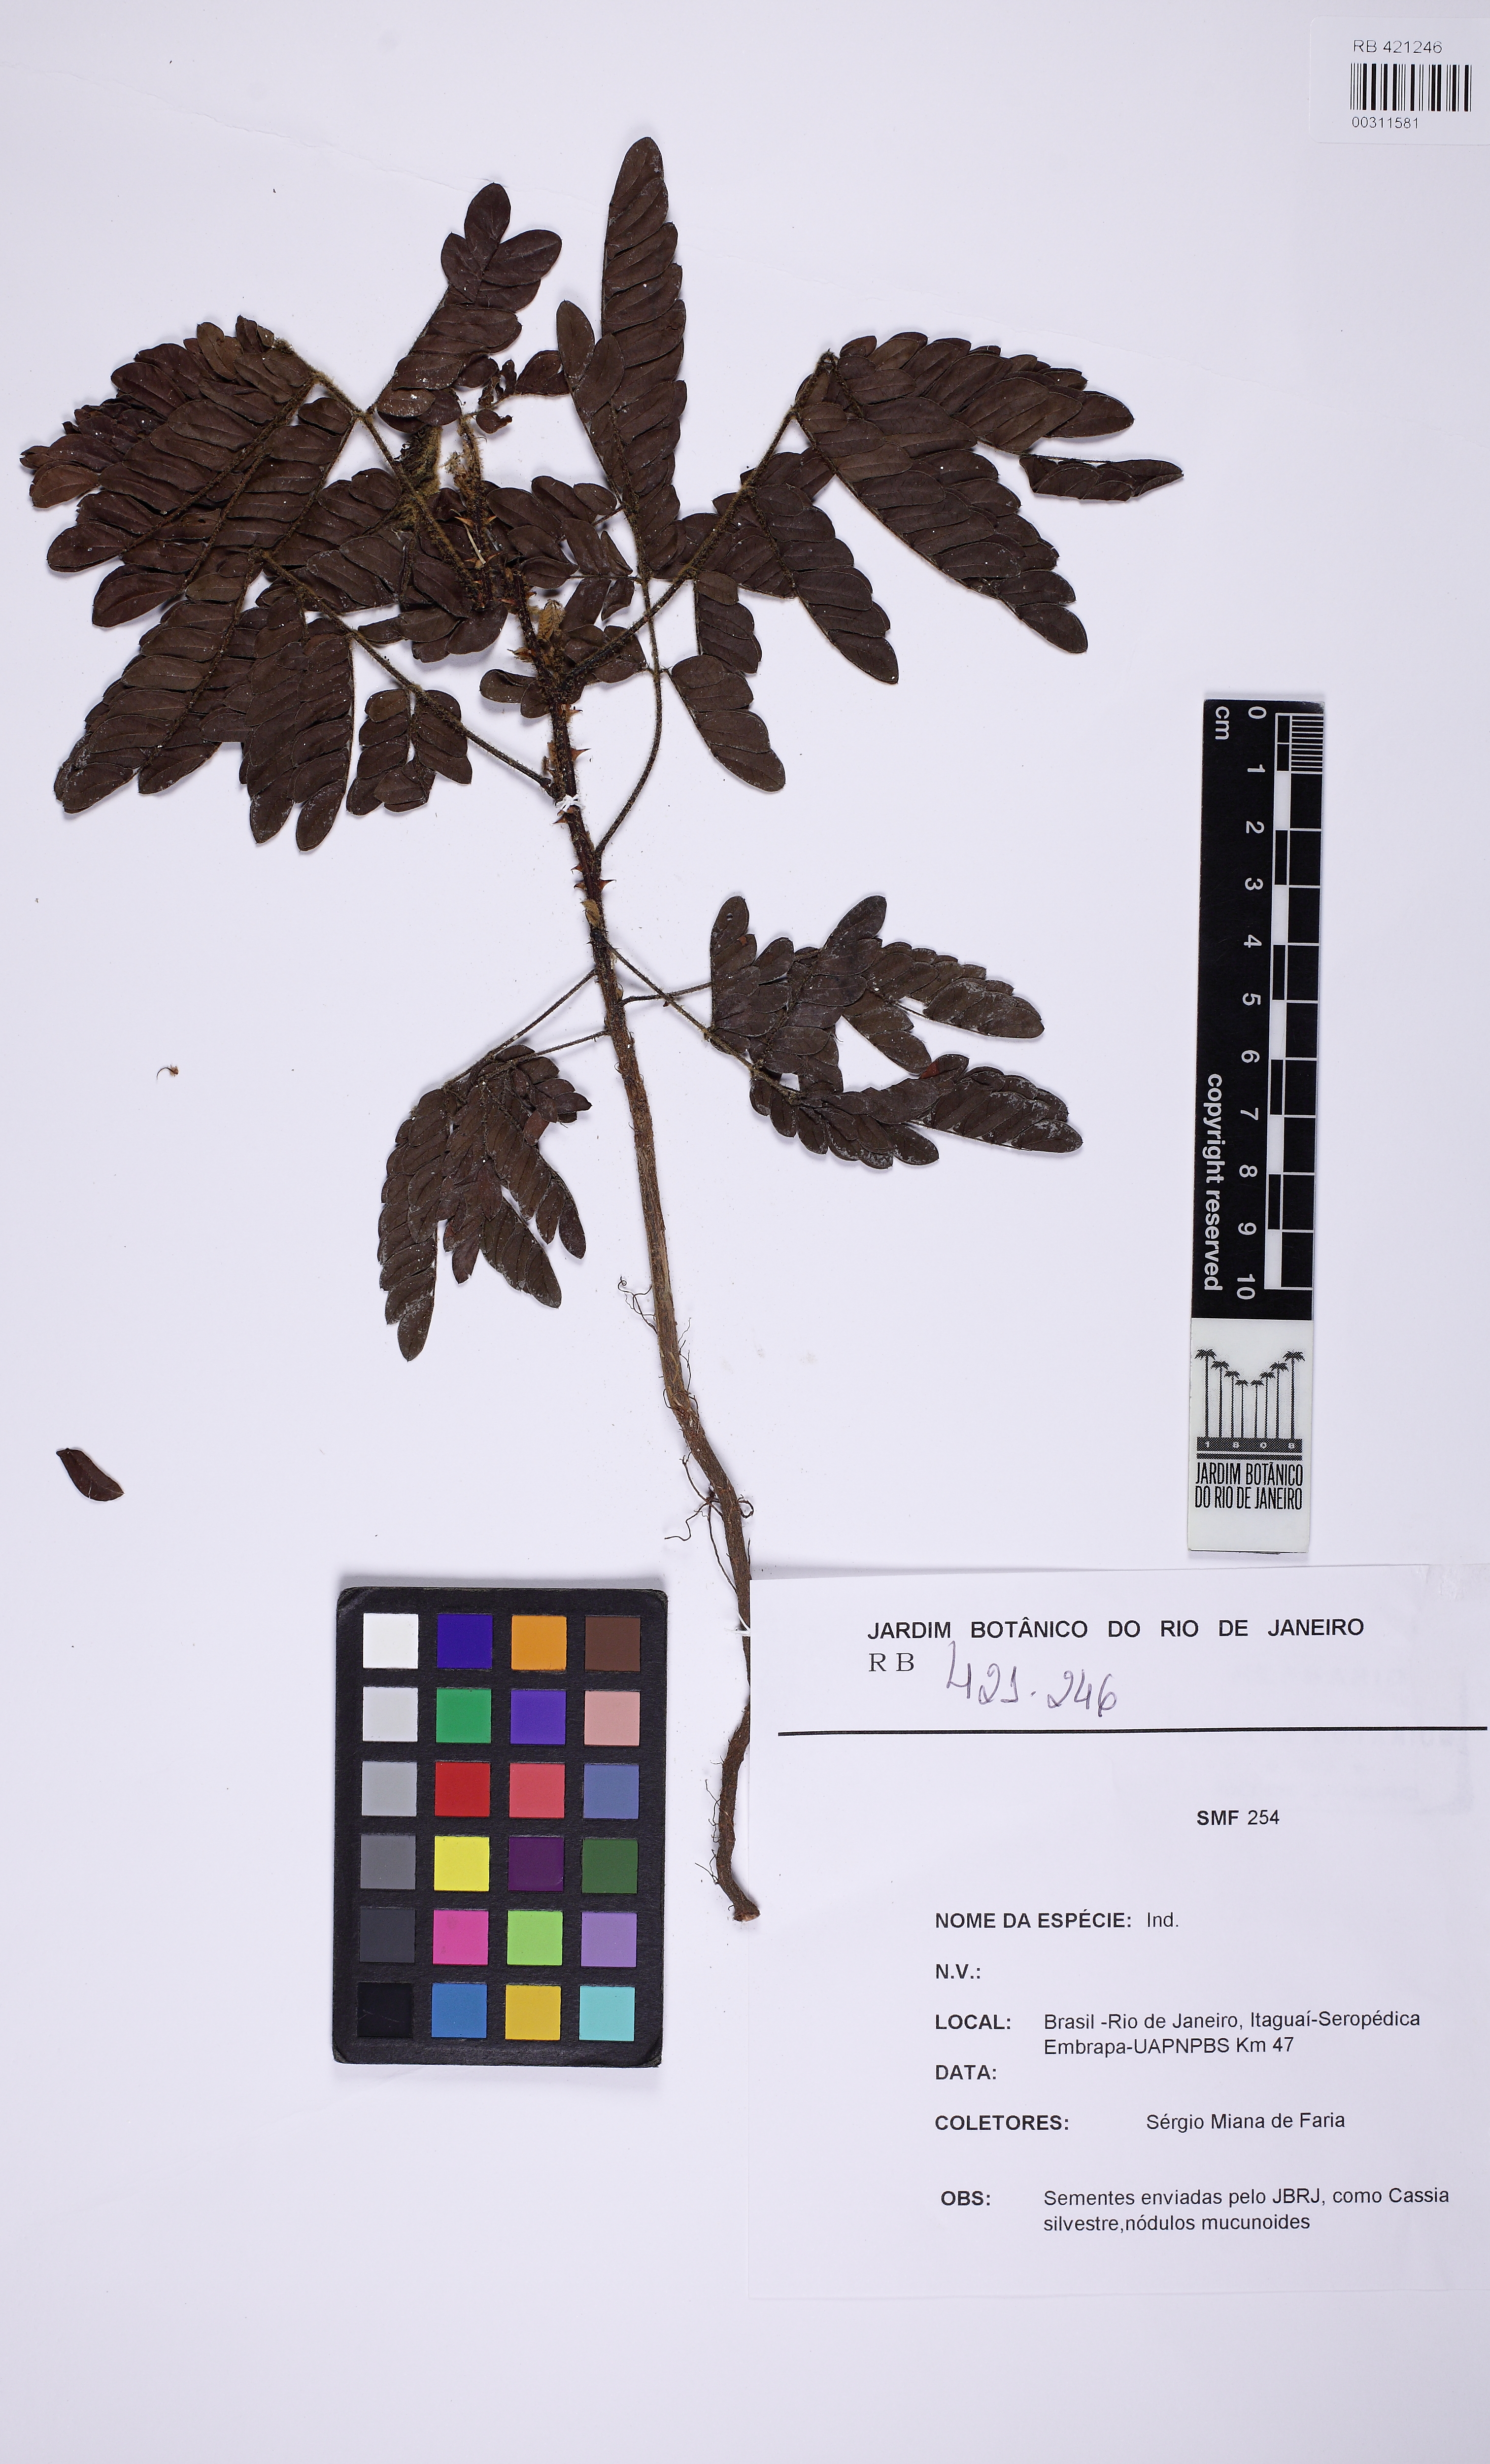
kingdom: Plantae
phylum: Tracheophyta
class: Magnoliopsida
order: Fabales
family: Fabaceae
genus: Mimosa
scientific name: Mimosa
